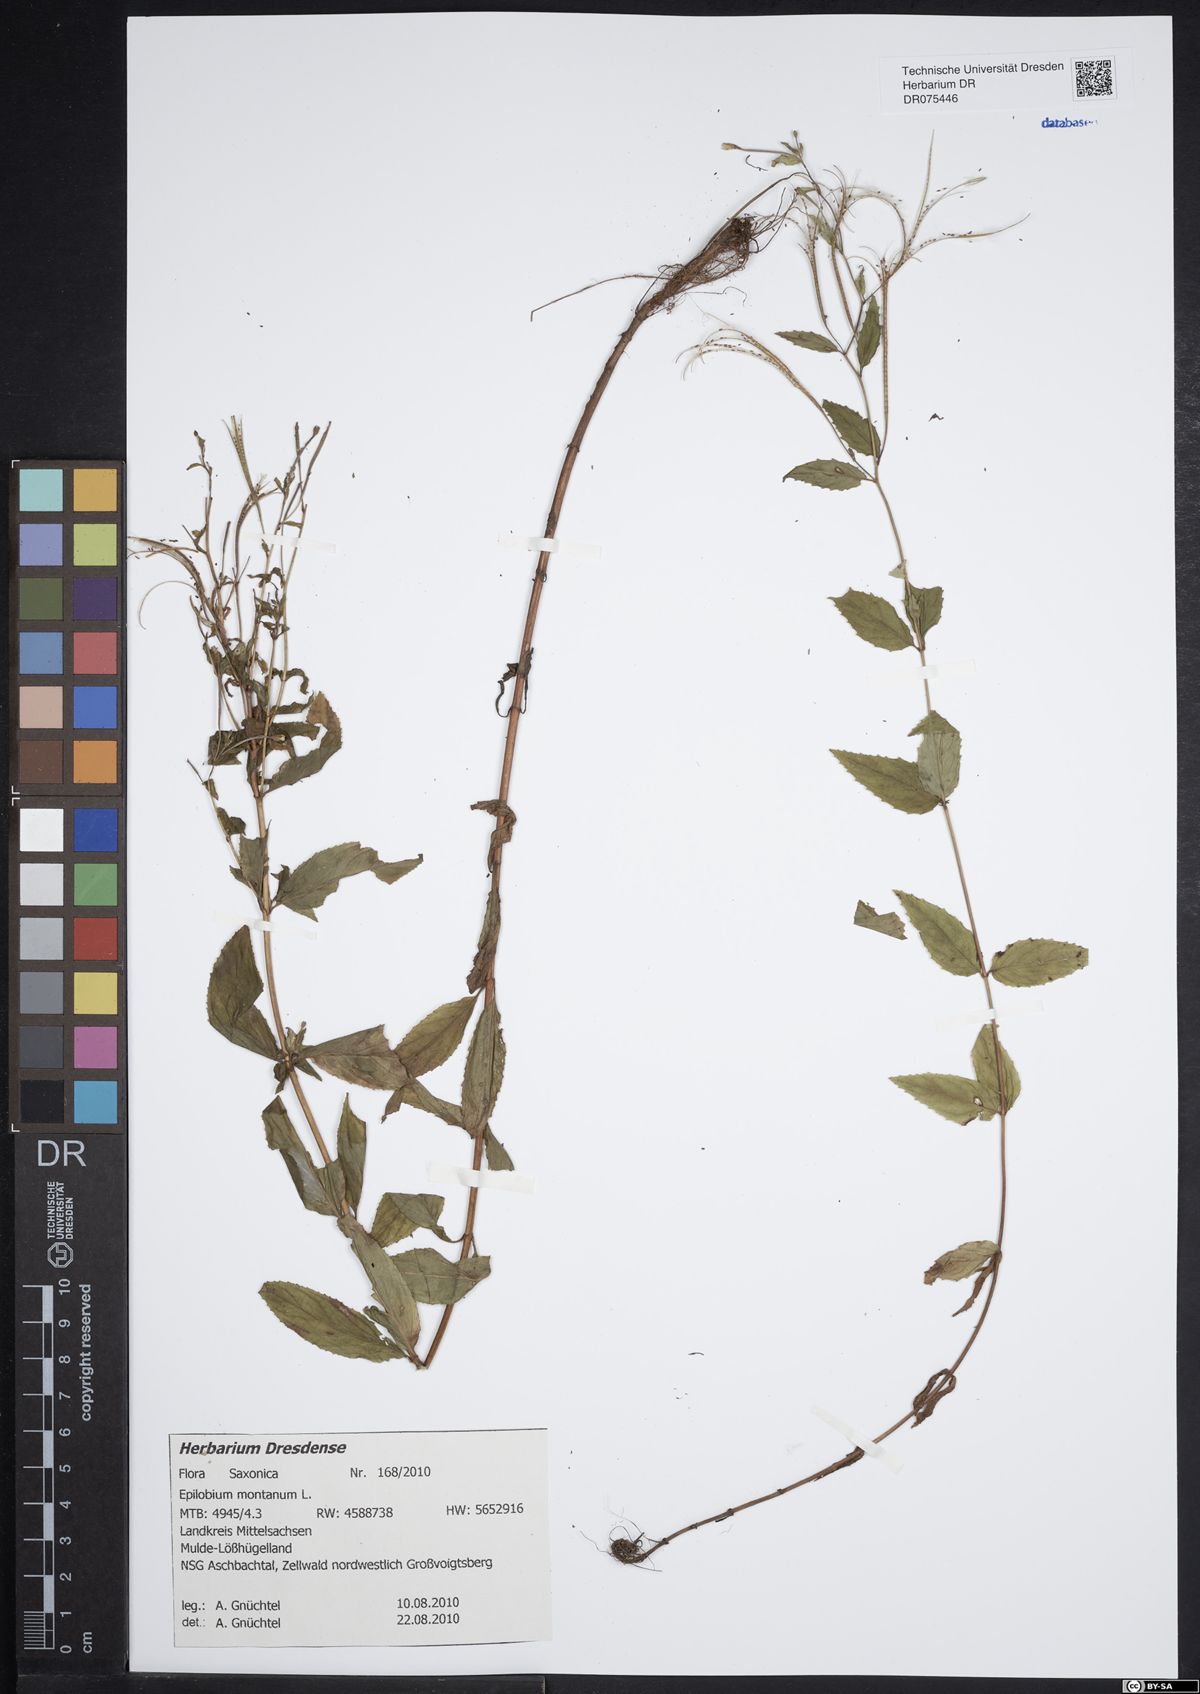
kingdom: Plantae
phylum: Tracheophyta
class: Magnoliopsida
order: Myrtales
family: Onagraceae
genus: Epilobium
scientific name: Epilobium montanum
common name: Broad-leaved willowherb
